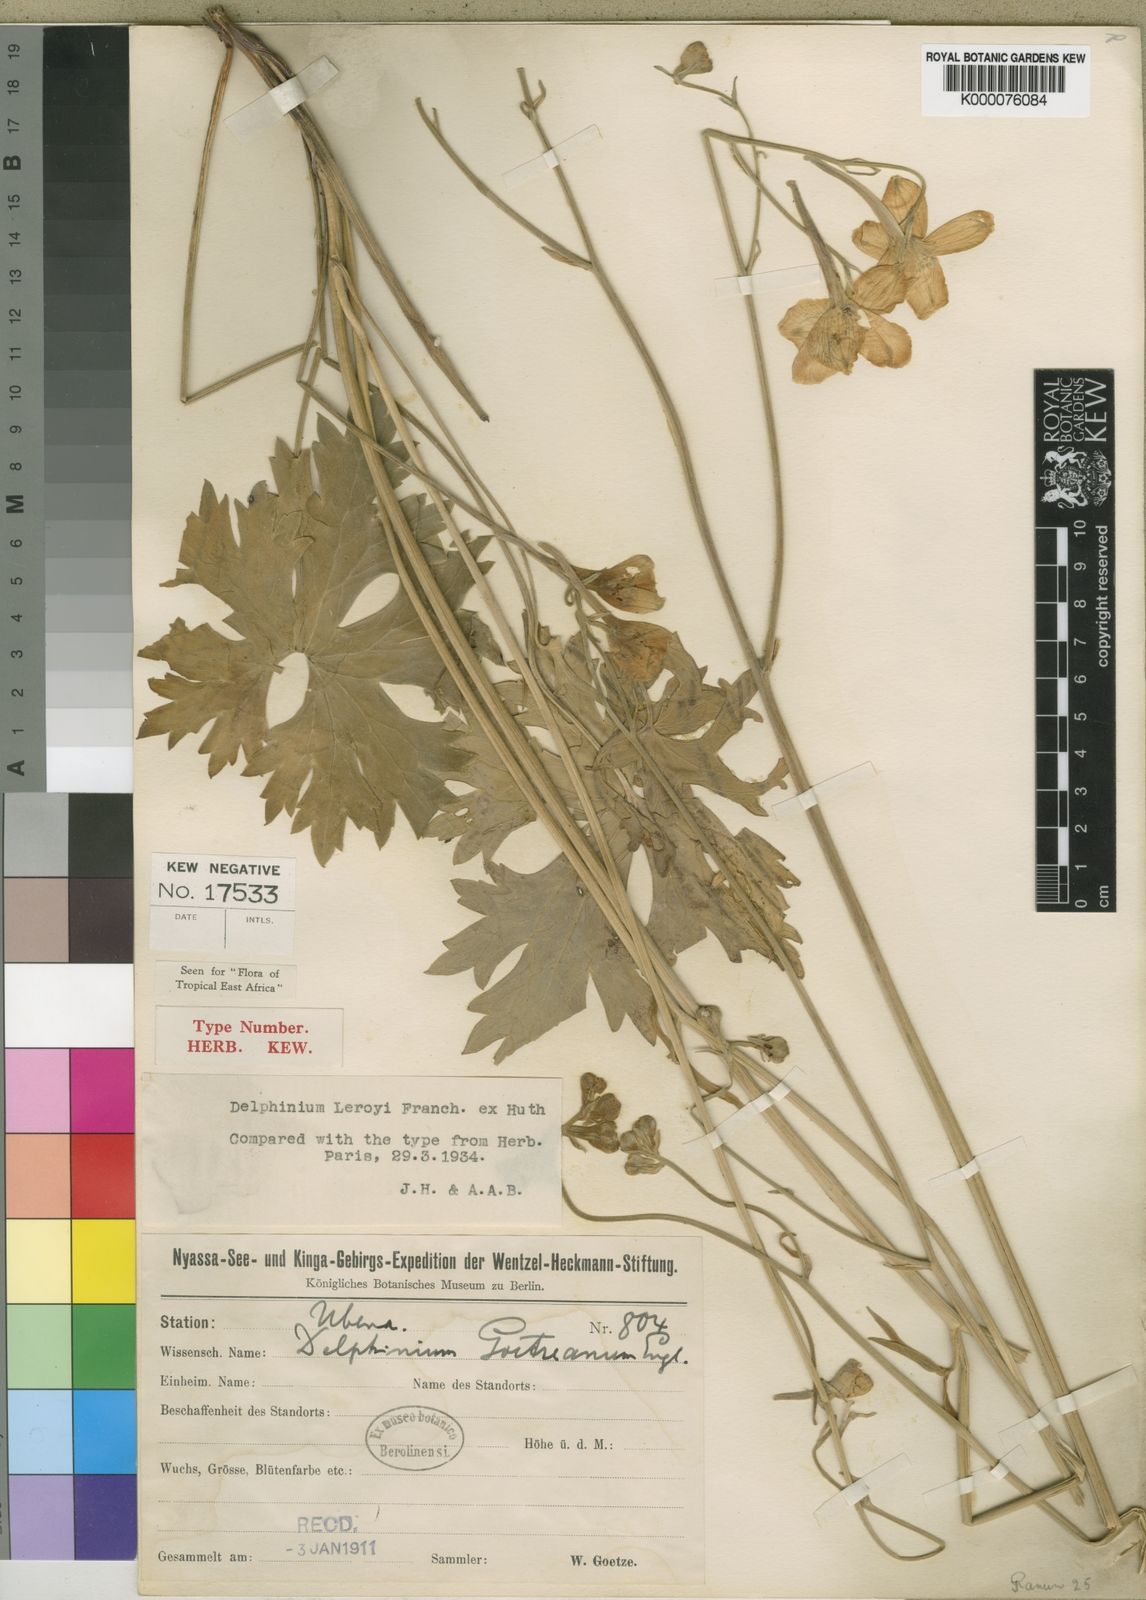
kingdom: Plantae
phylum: Tracheophyta
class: Magnoliopsida
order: Ranunculales
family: Ranunculaceae
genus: Delphinium
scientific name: Delphinium leroyi
